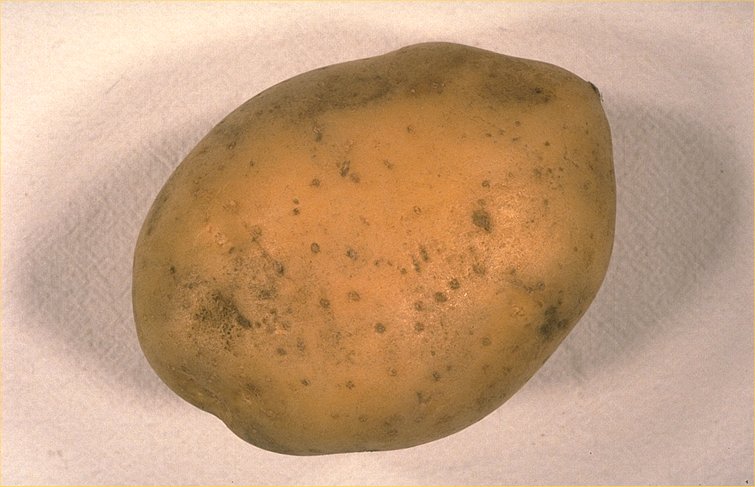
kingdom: Plantae
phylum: Tracheophyta
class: Magnoliopsida
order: Solanales
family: Solanaceae
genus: Solanum
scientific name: Solanum tuberosum
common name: Potato
